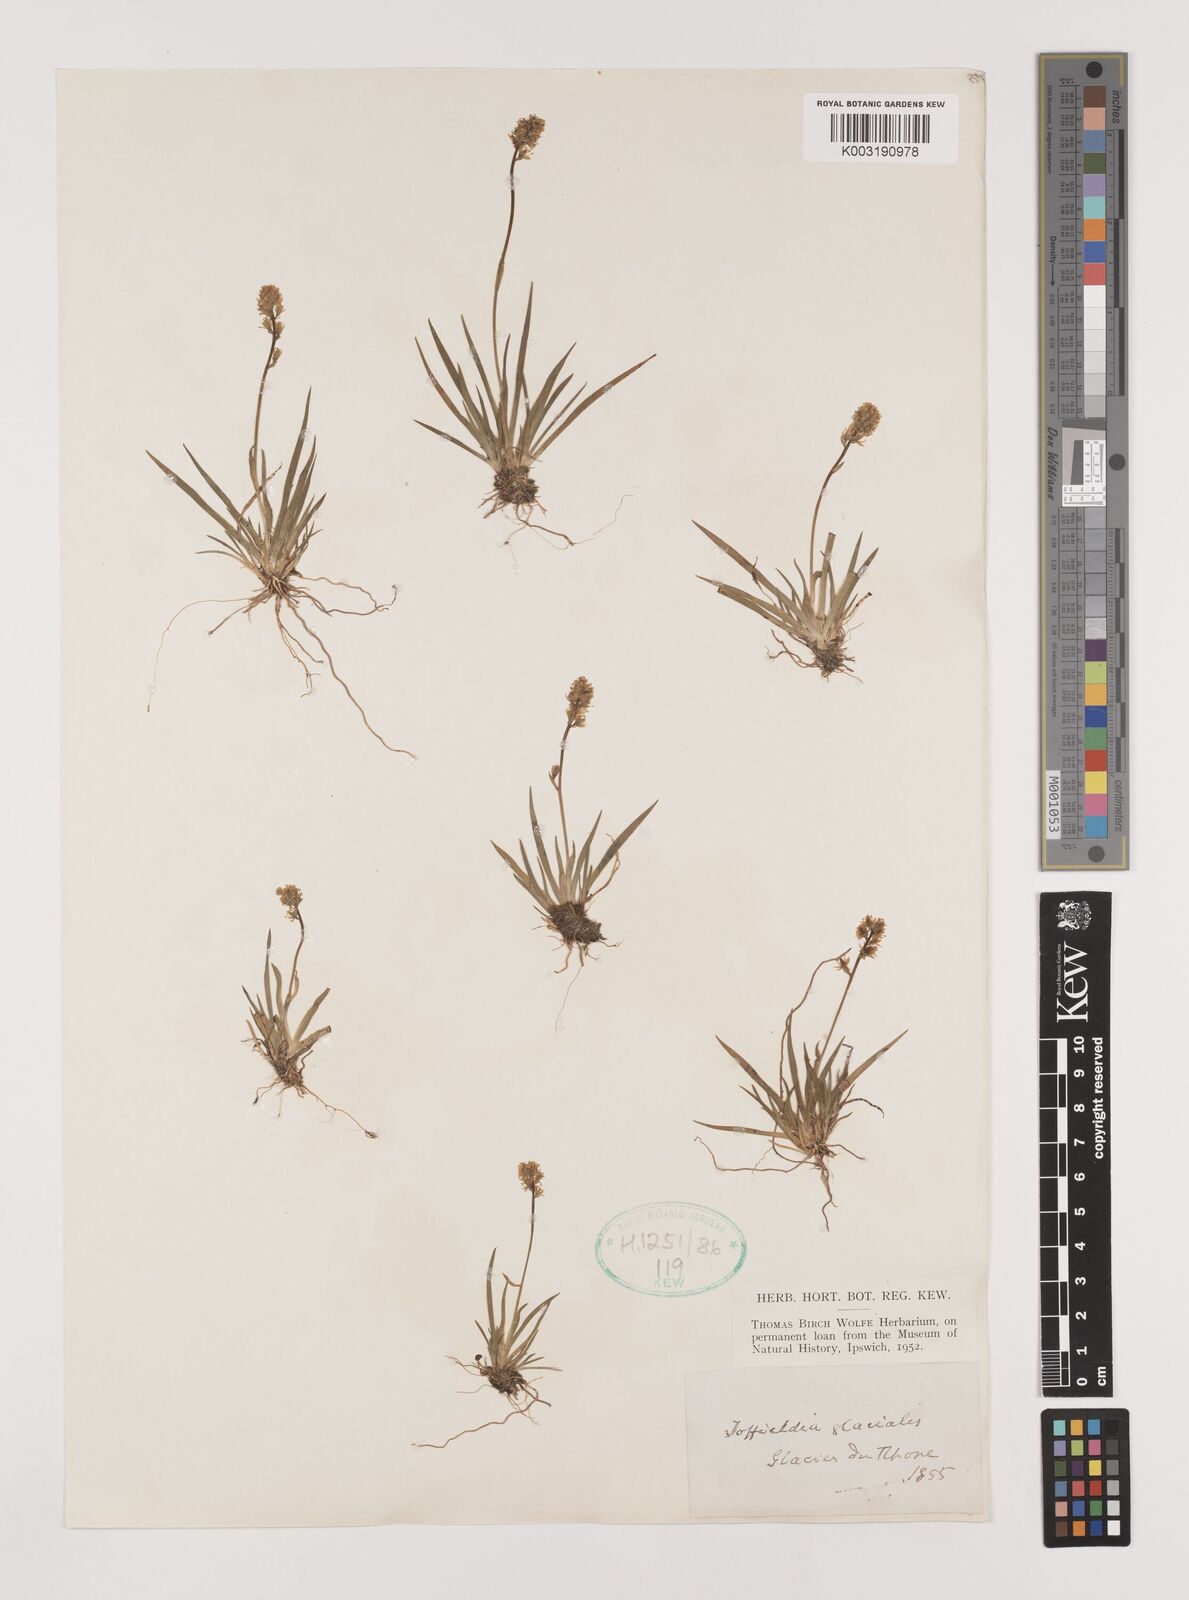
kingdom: Plantae
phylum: Tracheophyta
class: Liliopsida
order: Alismatales
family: Tofieldiaceae
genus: Tofieldia
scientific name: Tofieldia calyculata
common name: German-asphodel
